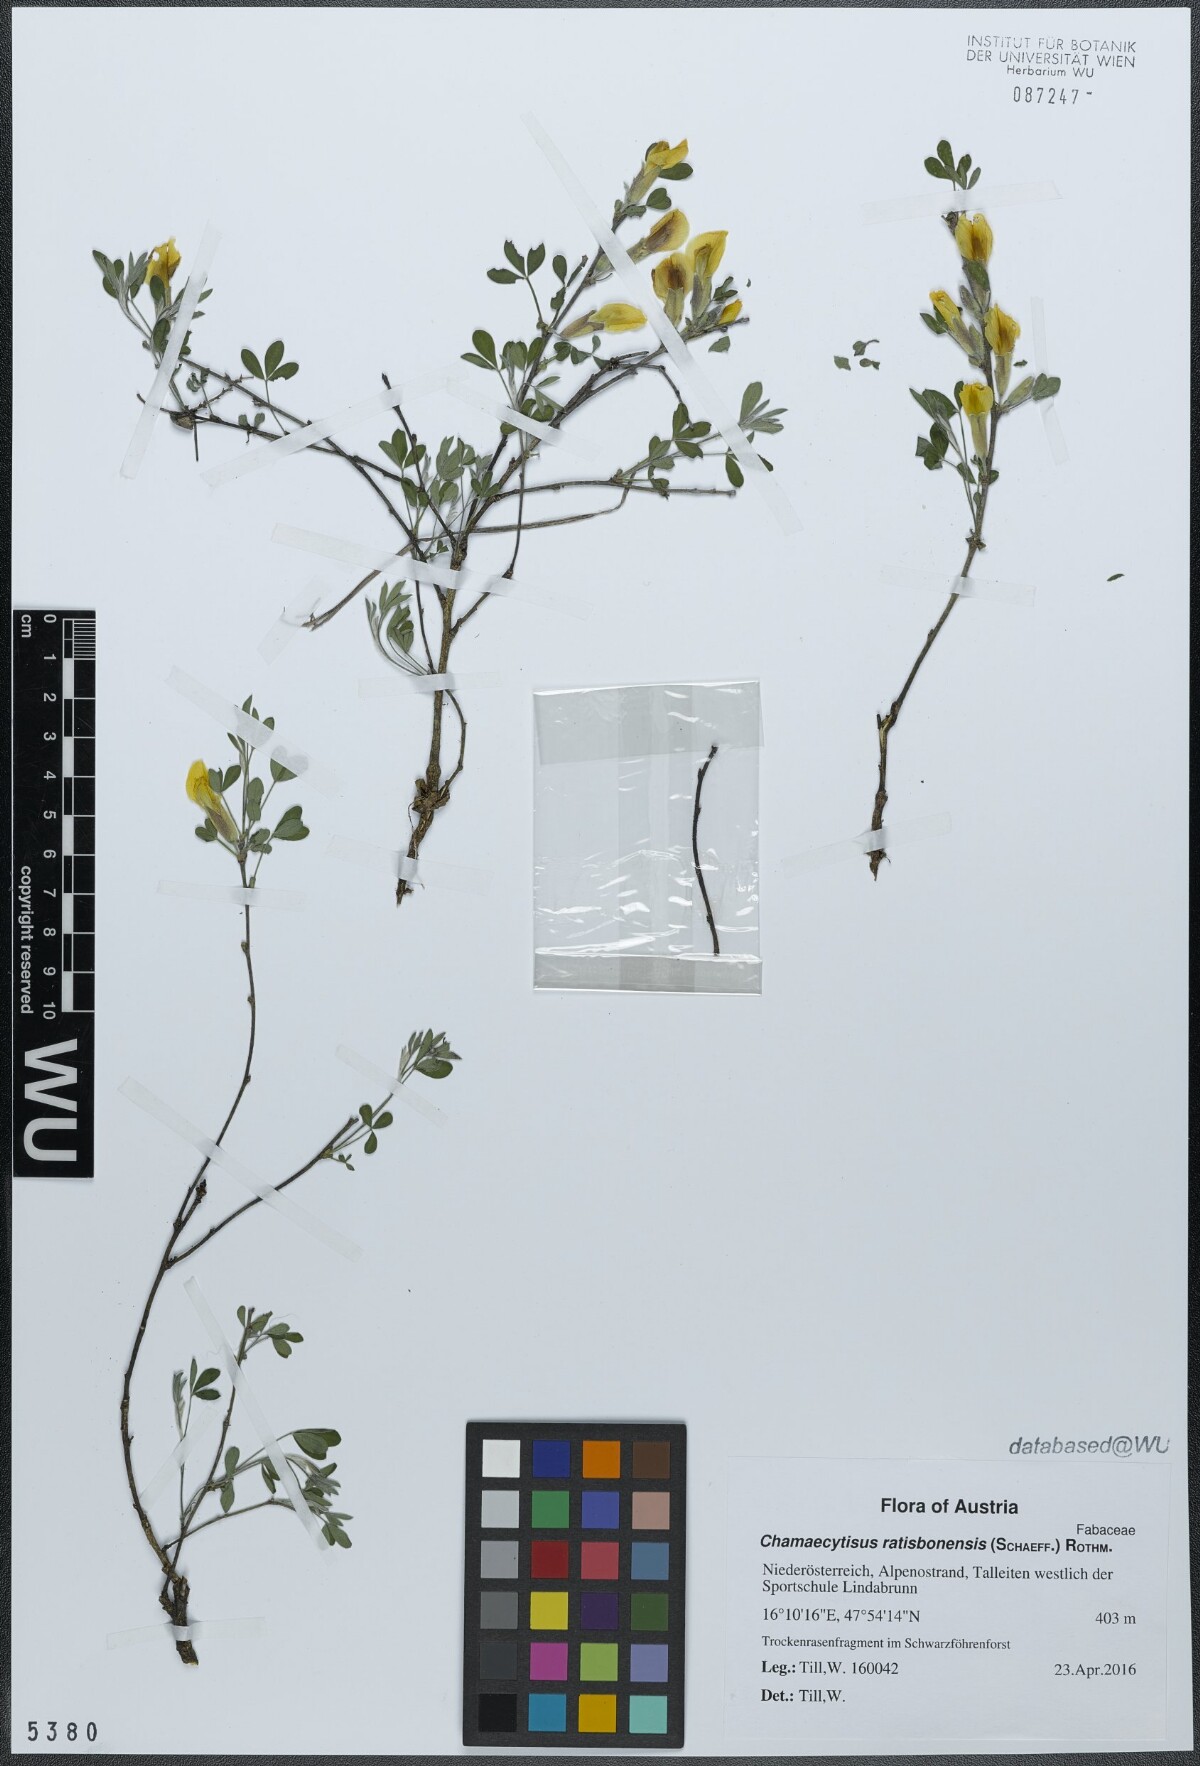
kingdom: Plantae
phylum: Tracheophyta
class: Magnoliopsida
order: Fabales
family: Fabaceae
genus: Chamaecytisus
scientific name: Chamaecytisus ratisbonensis
